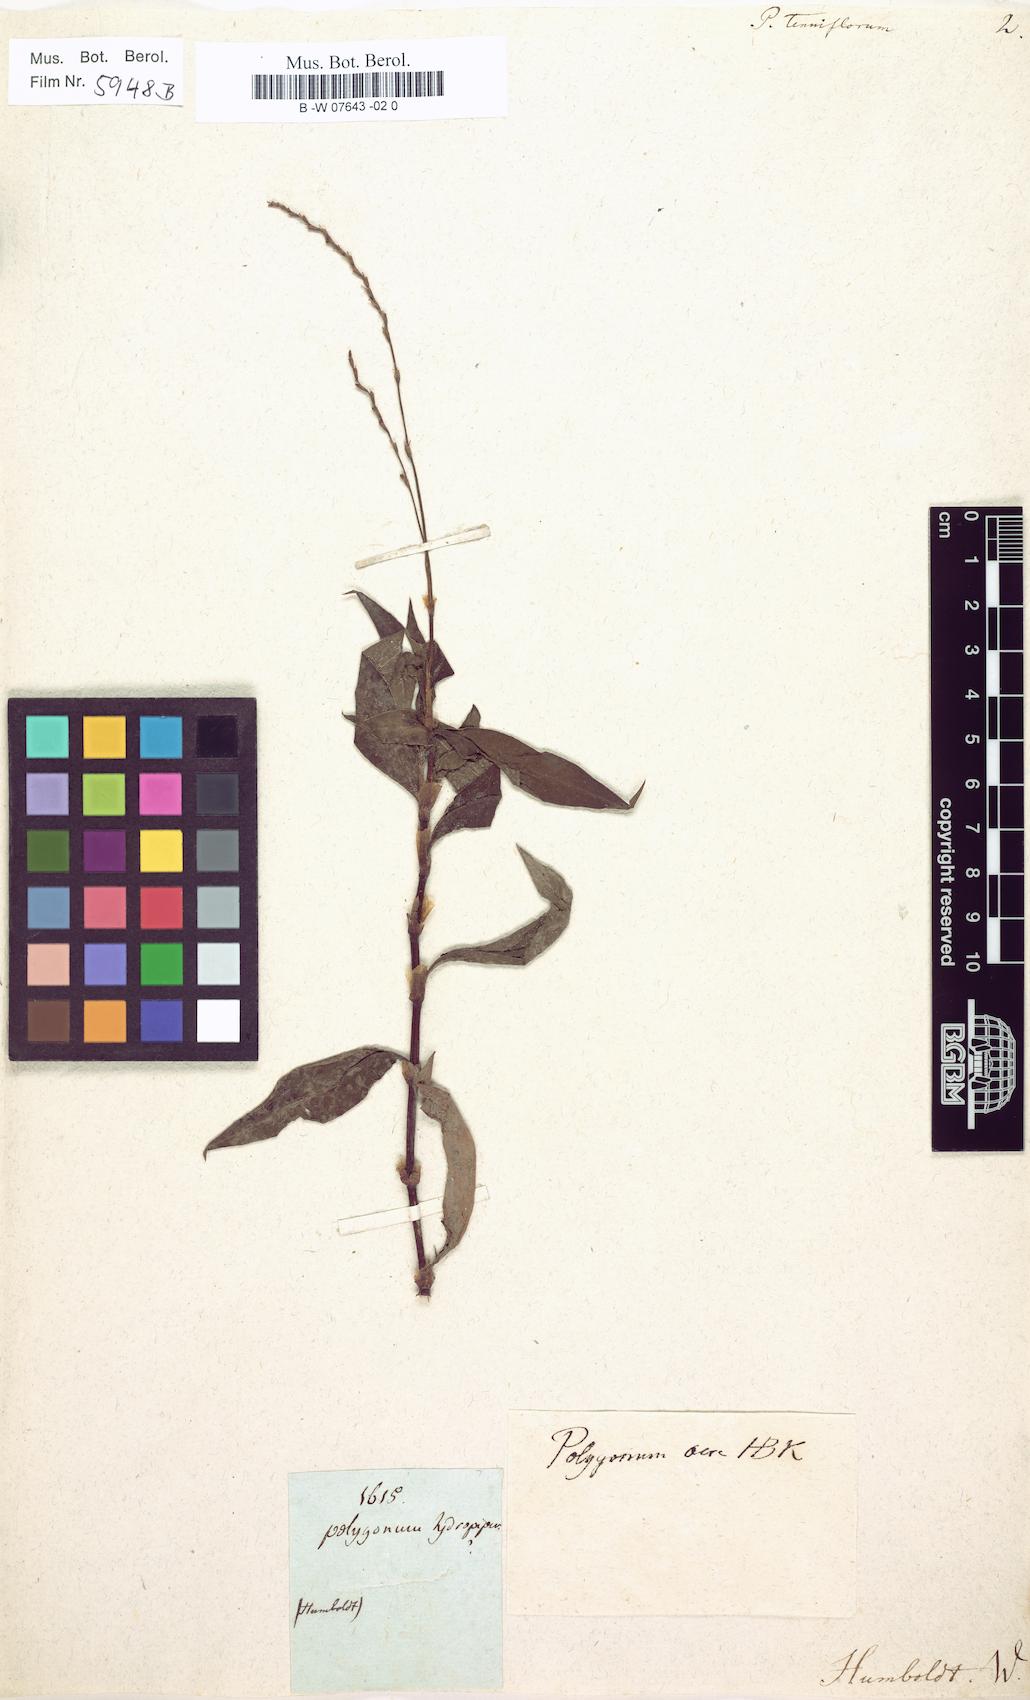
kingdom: Plantae
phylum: Tracheophyta
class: Magnoliopsida
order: Caryophyllales
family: Polygonaceae
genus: Persicaria
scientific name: Persicaria lapathifolia
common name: Curlytop knotweed
